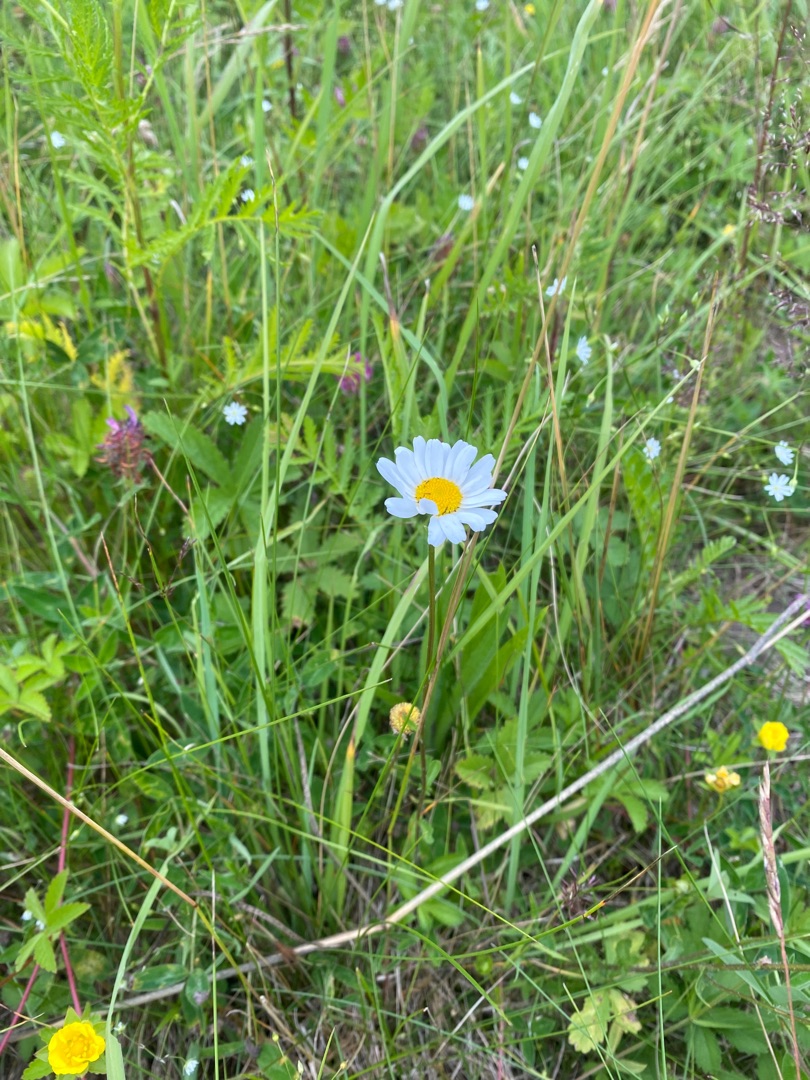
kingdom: Plantae
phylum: Tracheophyta
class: Magnoliopsida
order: Asterales
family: Asteraceae
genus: Leucanthemum
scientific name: Leucanthemum vulgare
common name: Hvid okseøje
